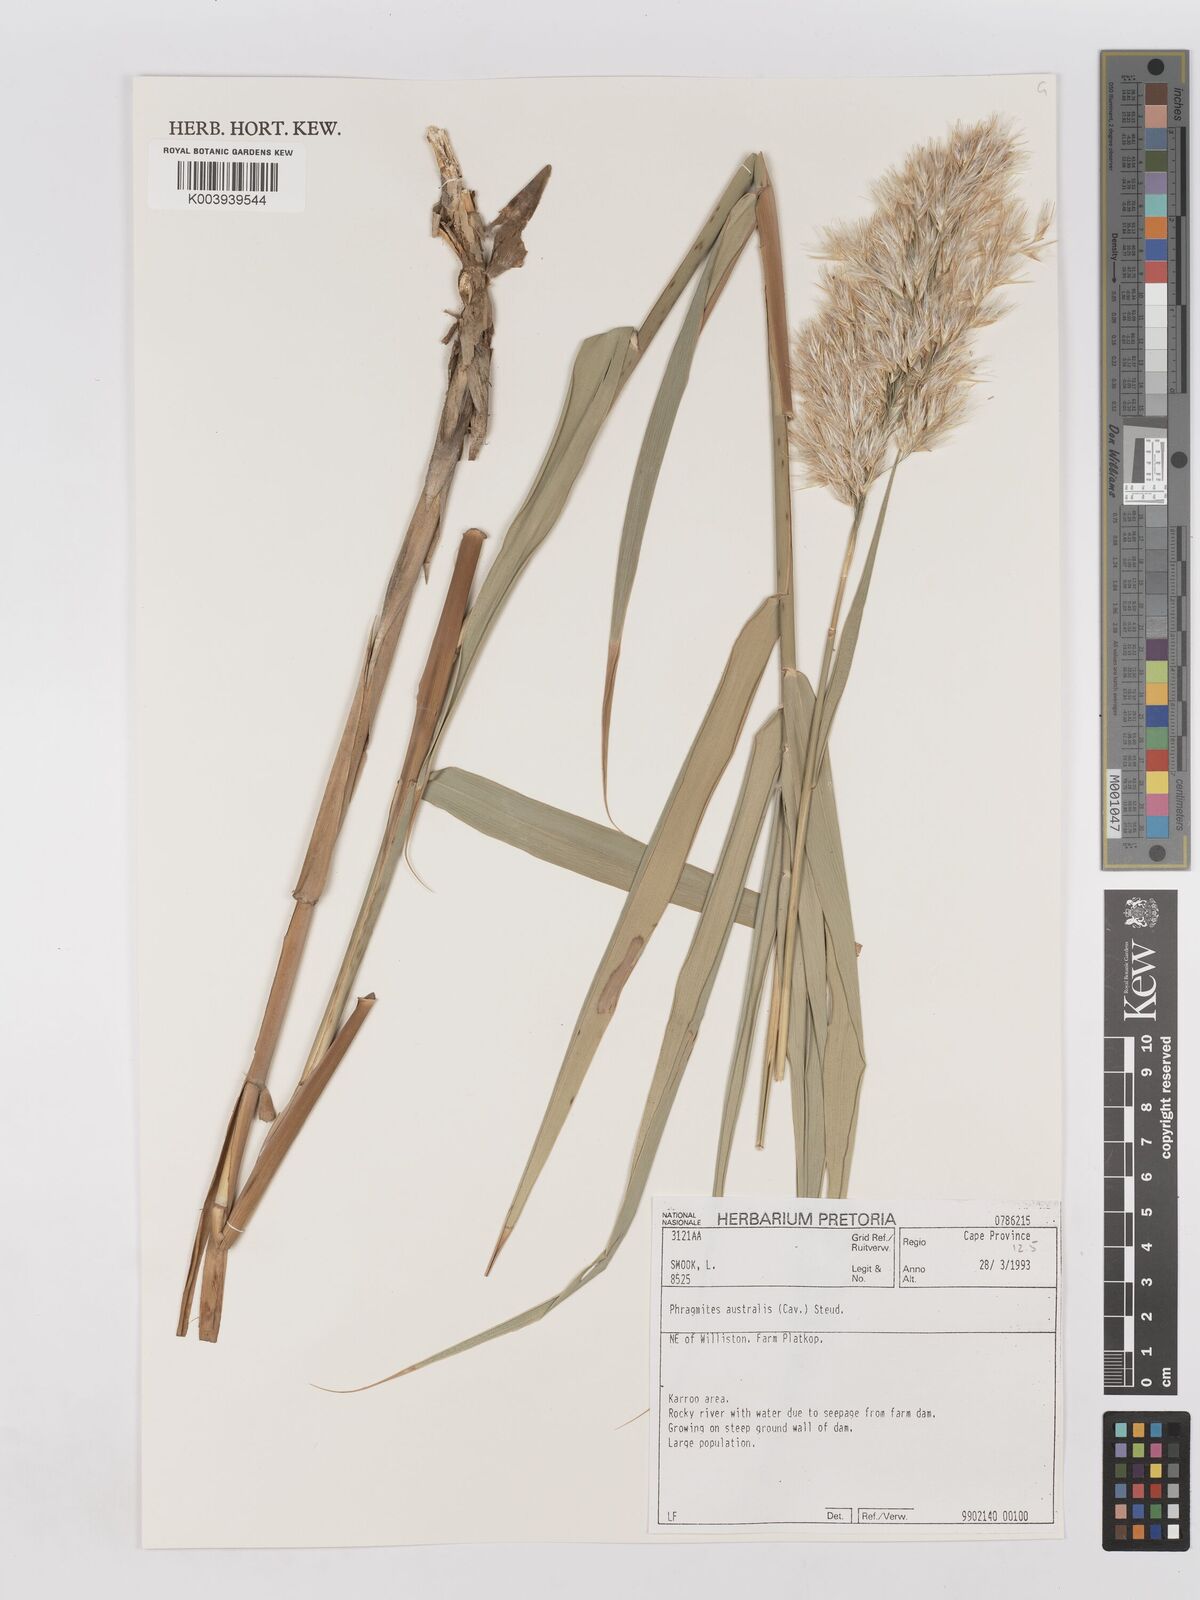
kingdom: Plantae
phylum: Tracheophyta
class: Liliopsida
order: Poales
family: Poaceae
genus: Phragmites
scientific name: Phragmites australis
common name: Common reed
